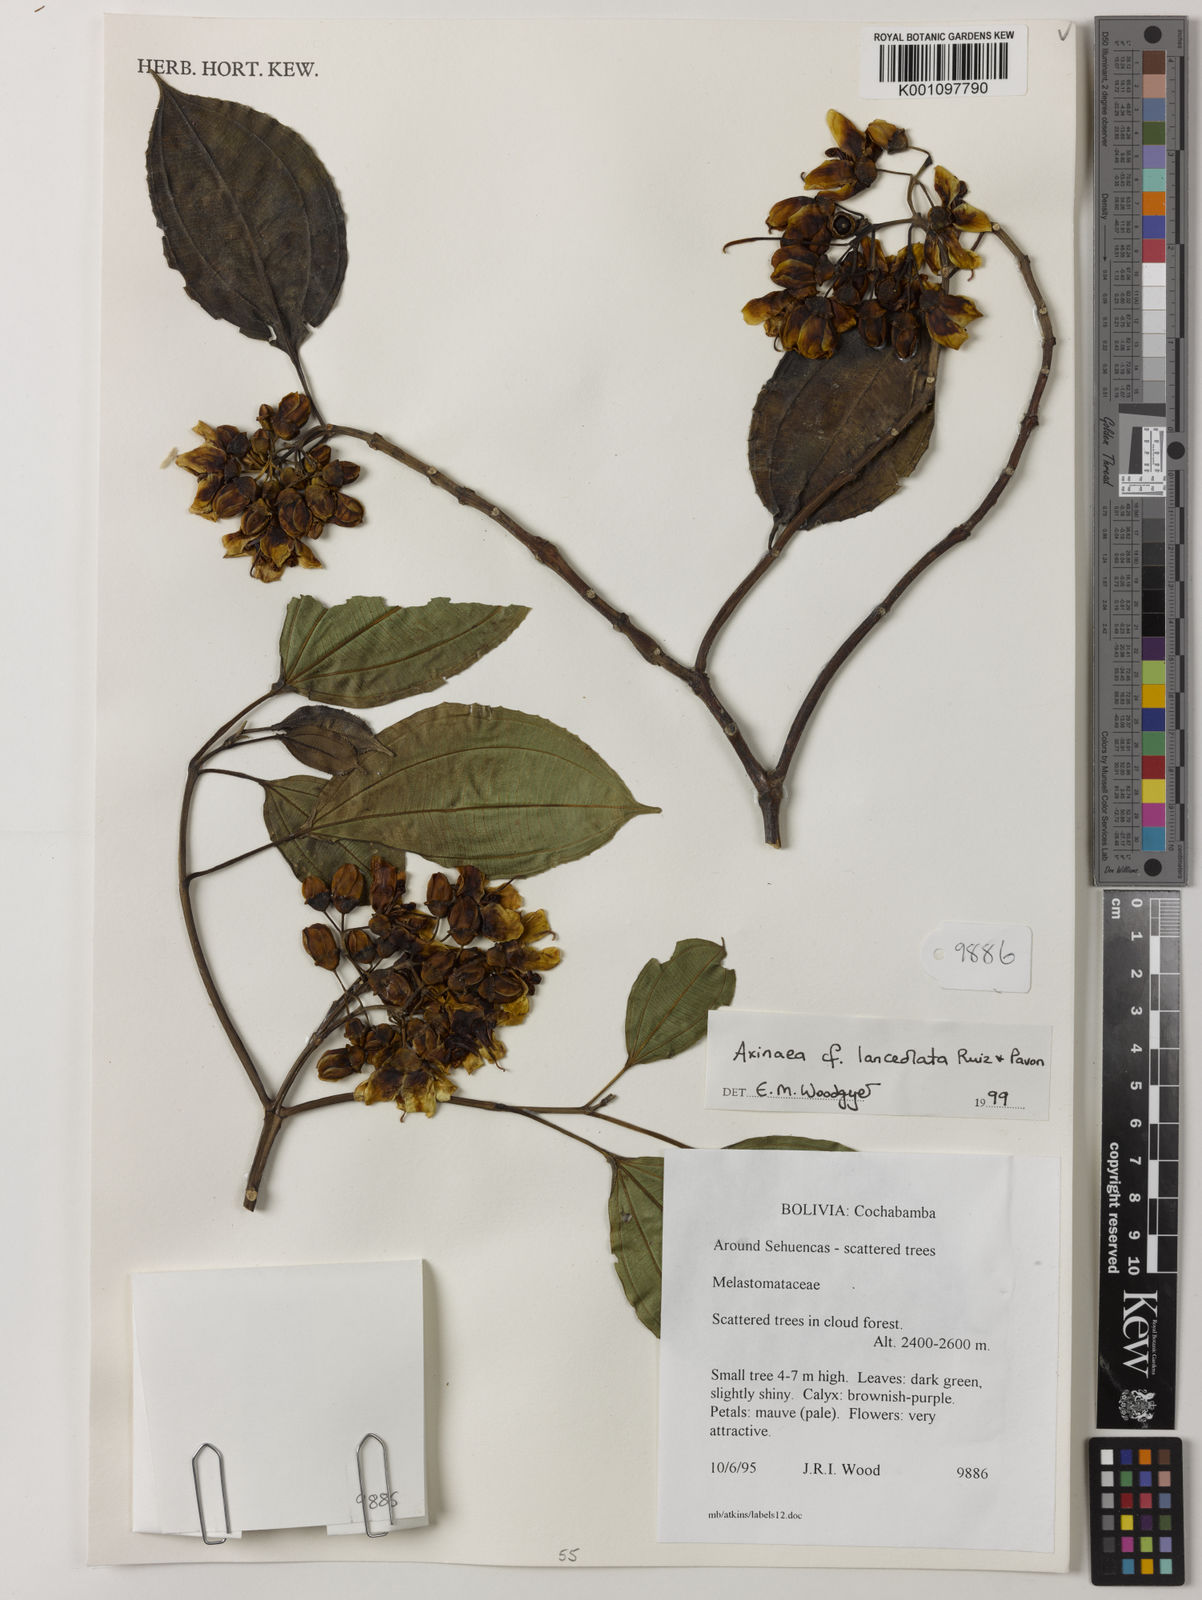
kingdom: Plantae
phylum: Tracheophyta
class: Magnoliopsida
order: Myrtales
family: Melastomataceae
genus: Axinaea
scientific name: Axinaea lanceolata
